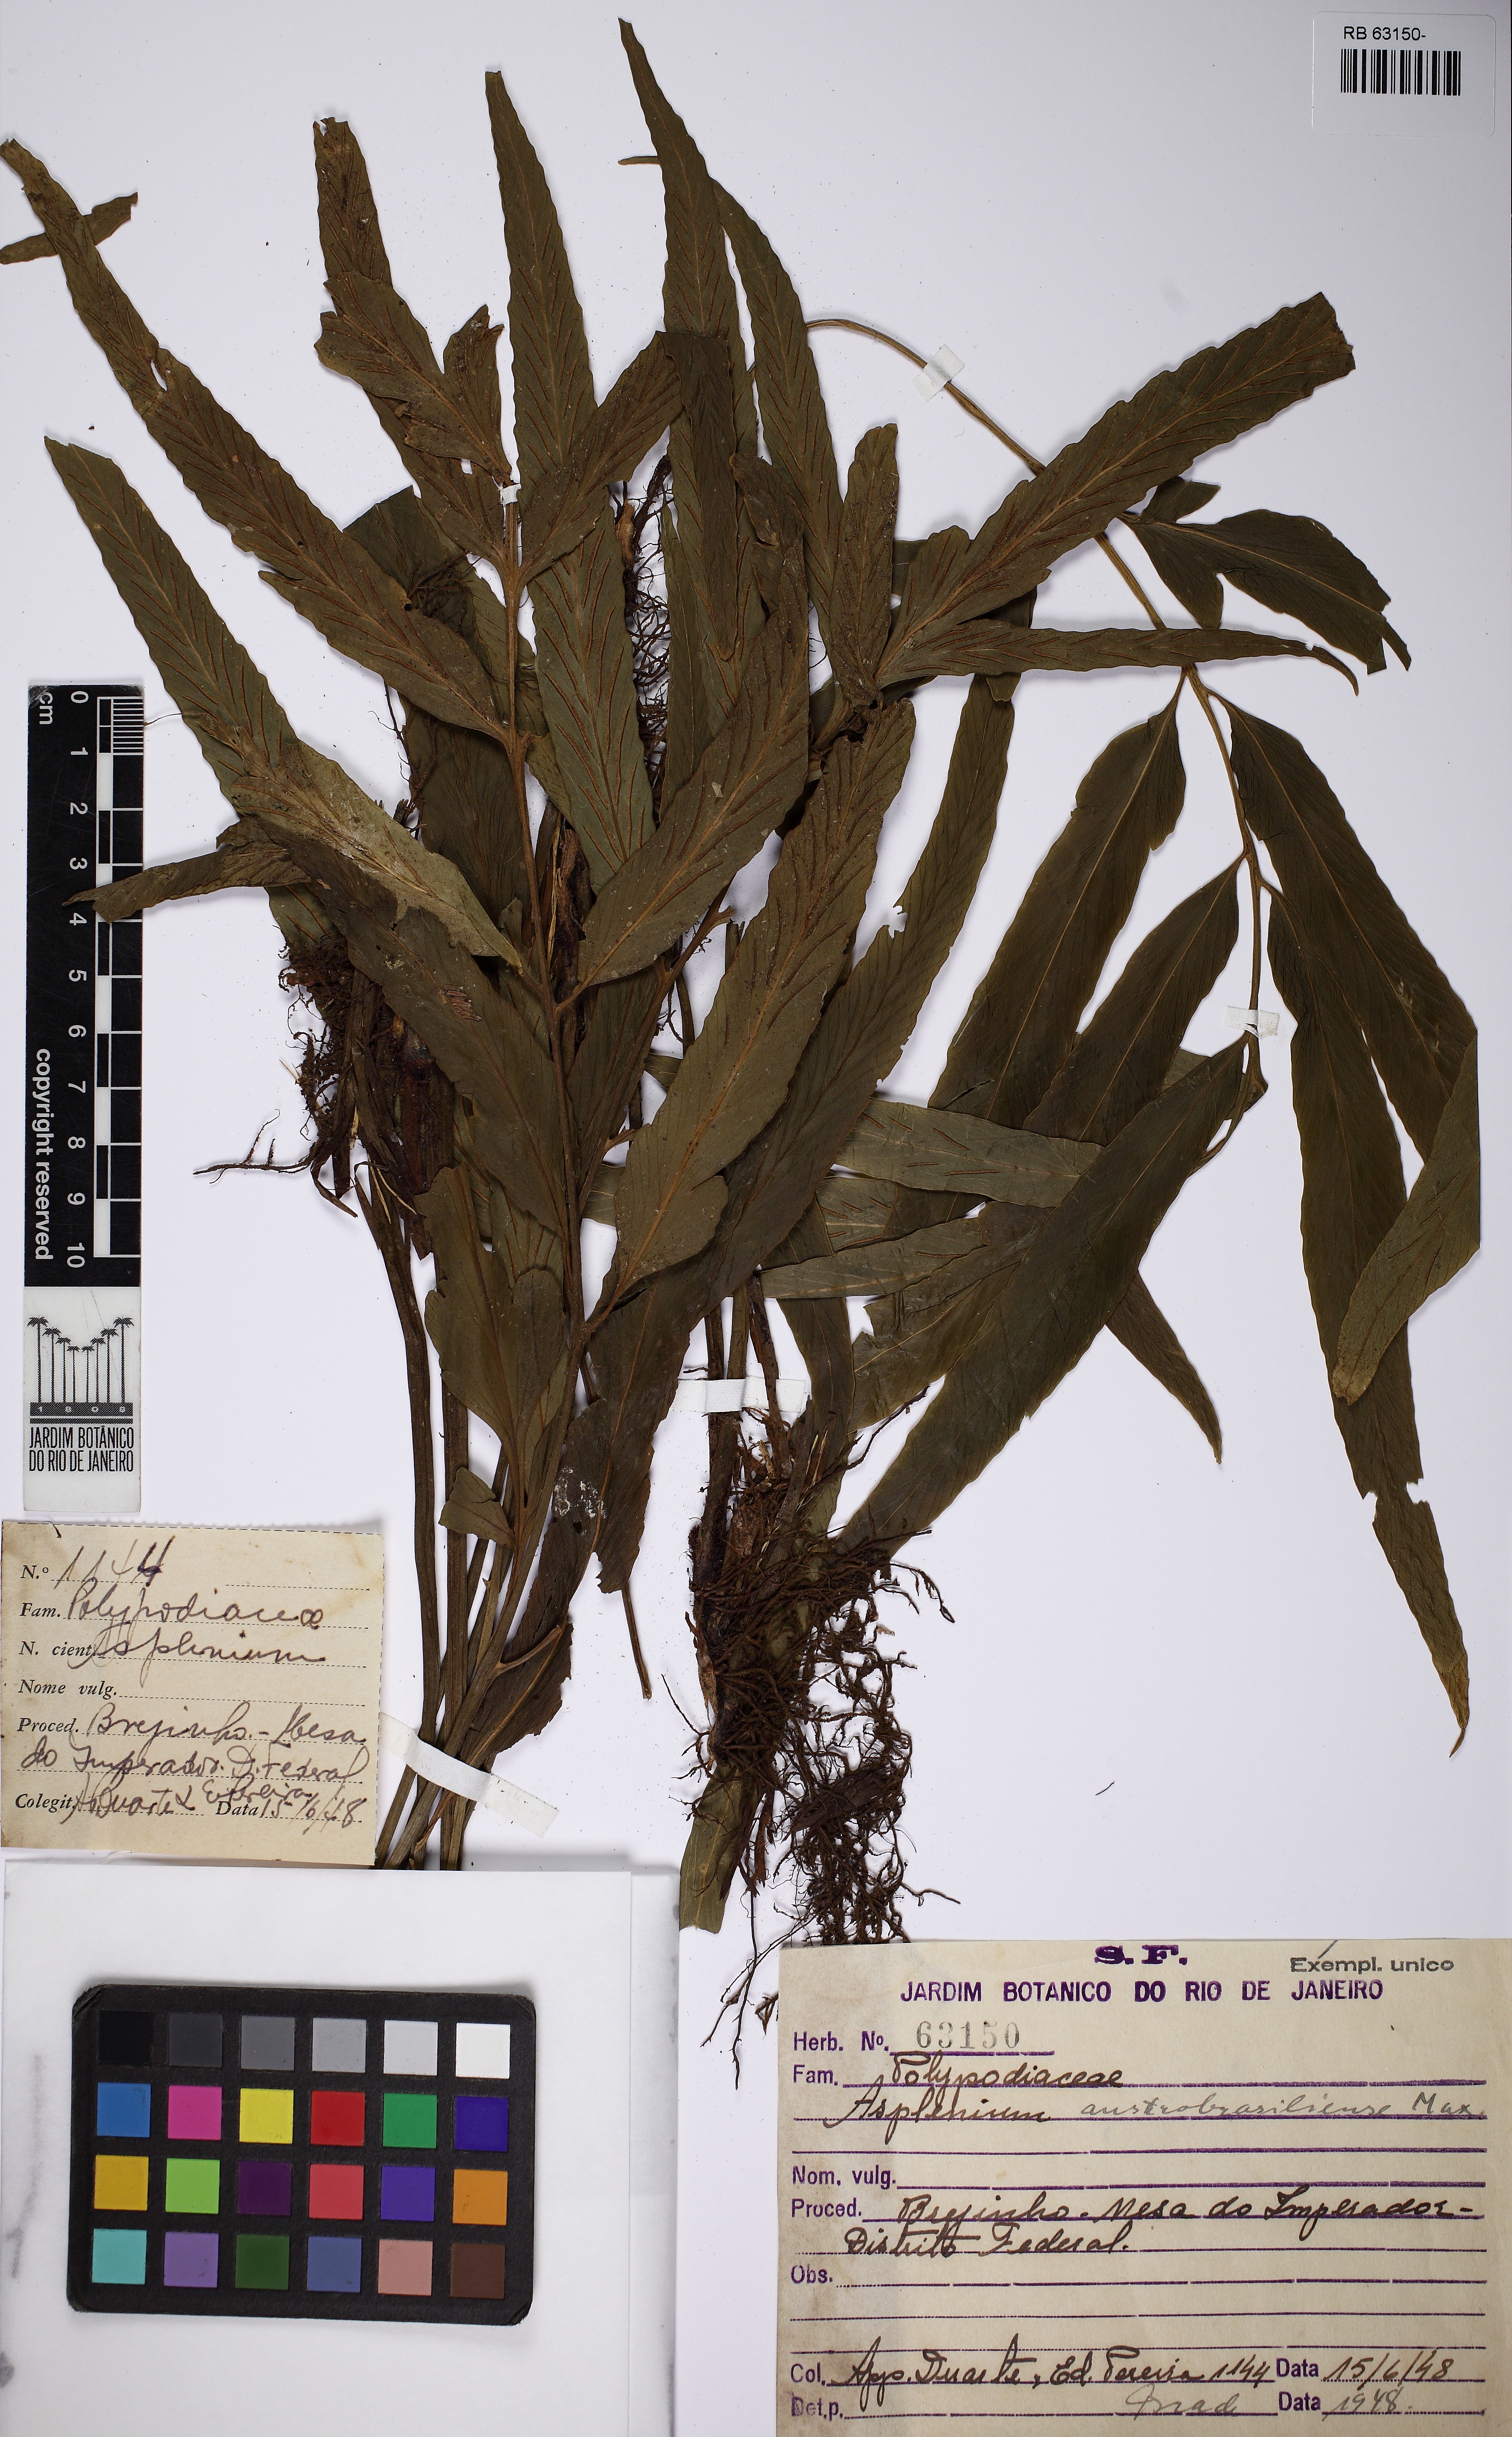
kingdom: Plantae
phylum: Tracheophyta
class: Polypodiopsida
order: Polypodiales
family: Aspleniaceae
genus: Asplenium
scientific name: Asplenium austrobrasiliense
